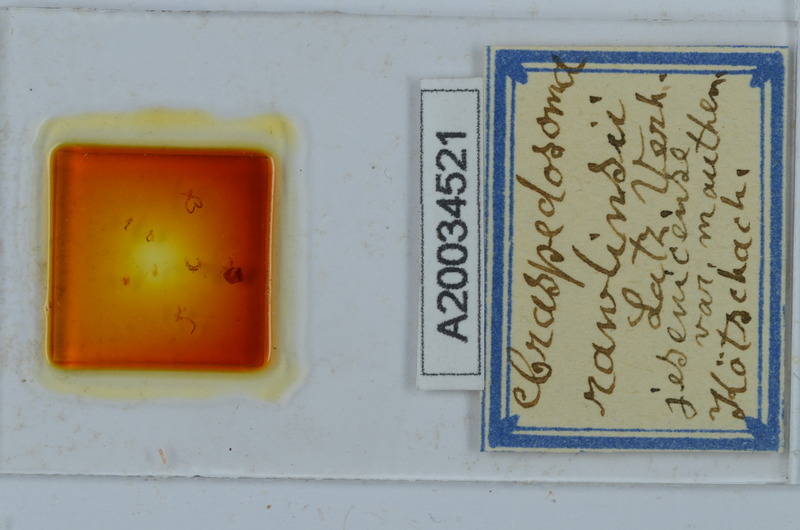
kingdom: Animalia
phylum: Arthropoda
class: Diplopoda
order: Chordeumatida
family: Craspedosomatidae
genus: Craspedosoma
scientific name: Craspedosoma slavum
